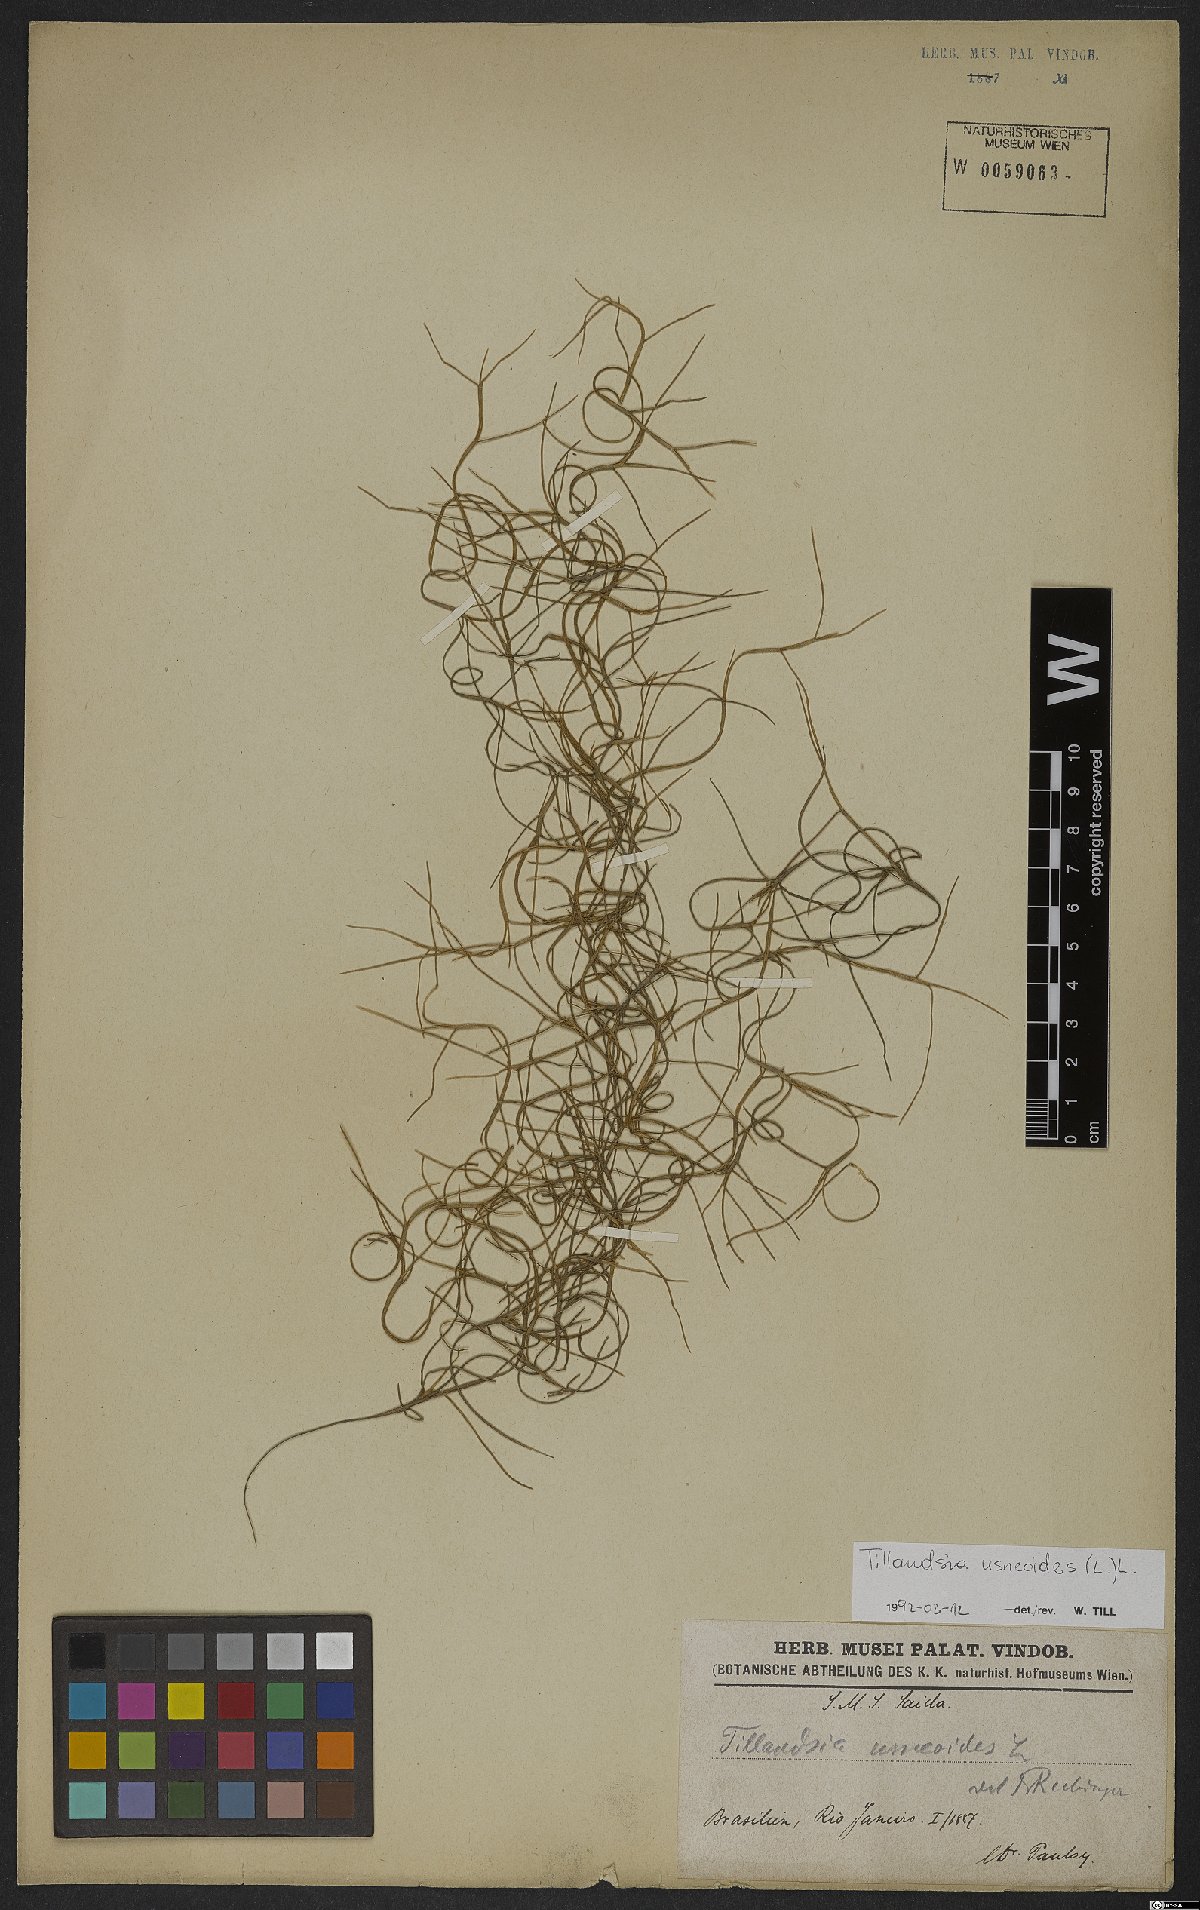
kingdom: Plantae
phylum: Tracheophyta
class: Liliopsida
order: Poales
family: Bromeliaceae
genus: Tillandsia
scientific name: Tillandsia usneoides
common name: Spanish moss
